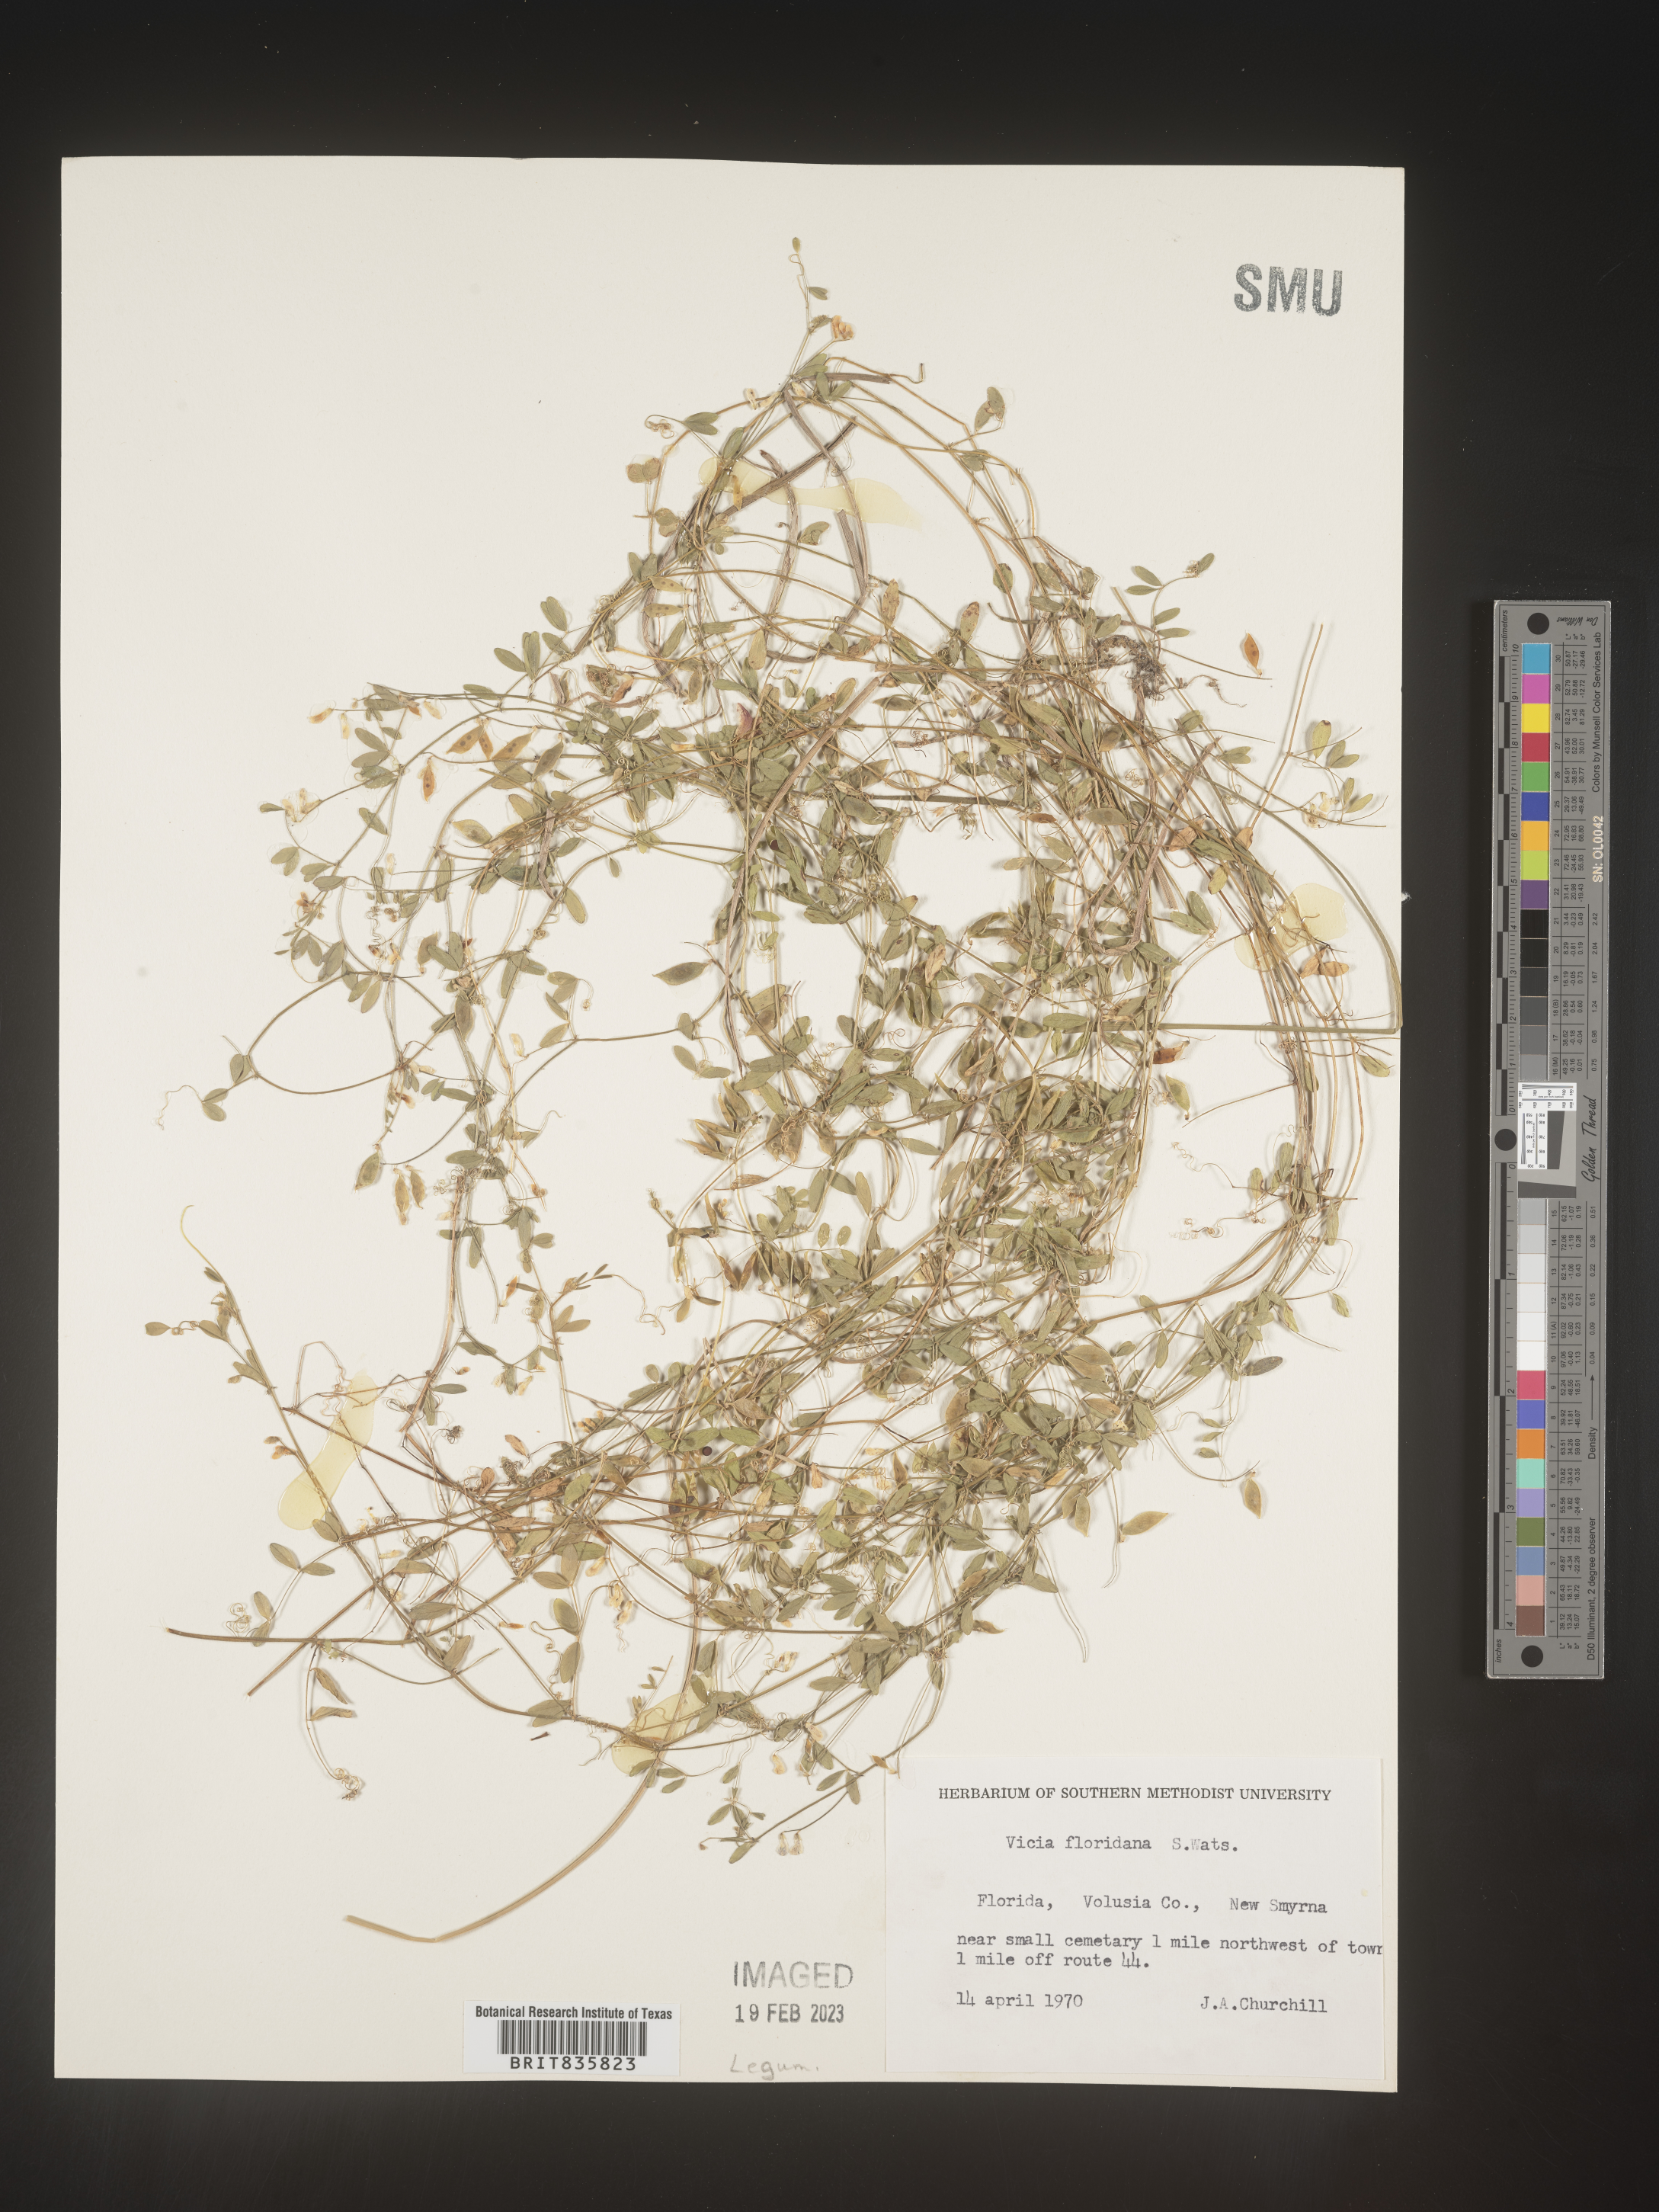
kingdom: Plantae
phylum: Tracheophyta
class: Magnoliopsida
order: Fabales
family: Fabaceae
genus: Vicia
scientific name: Vicia
